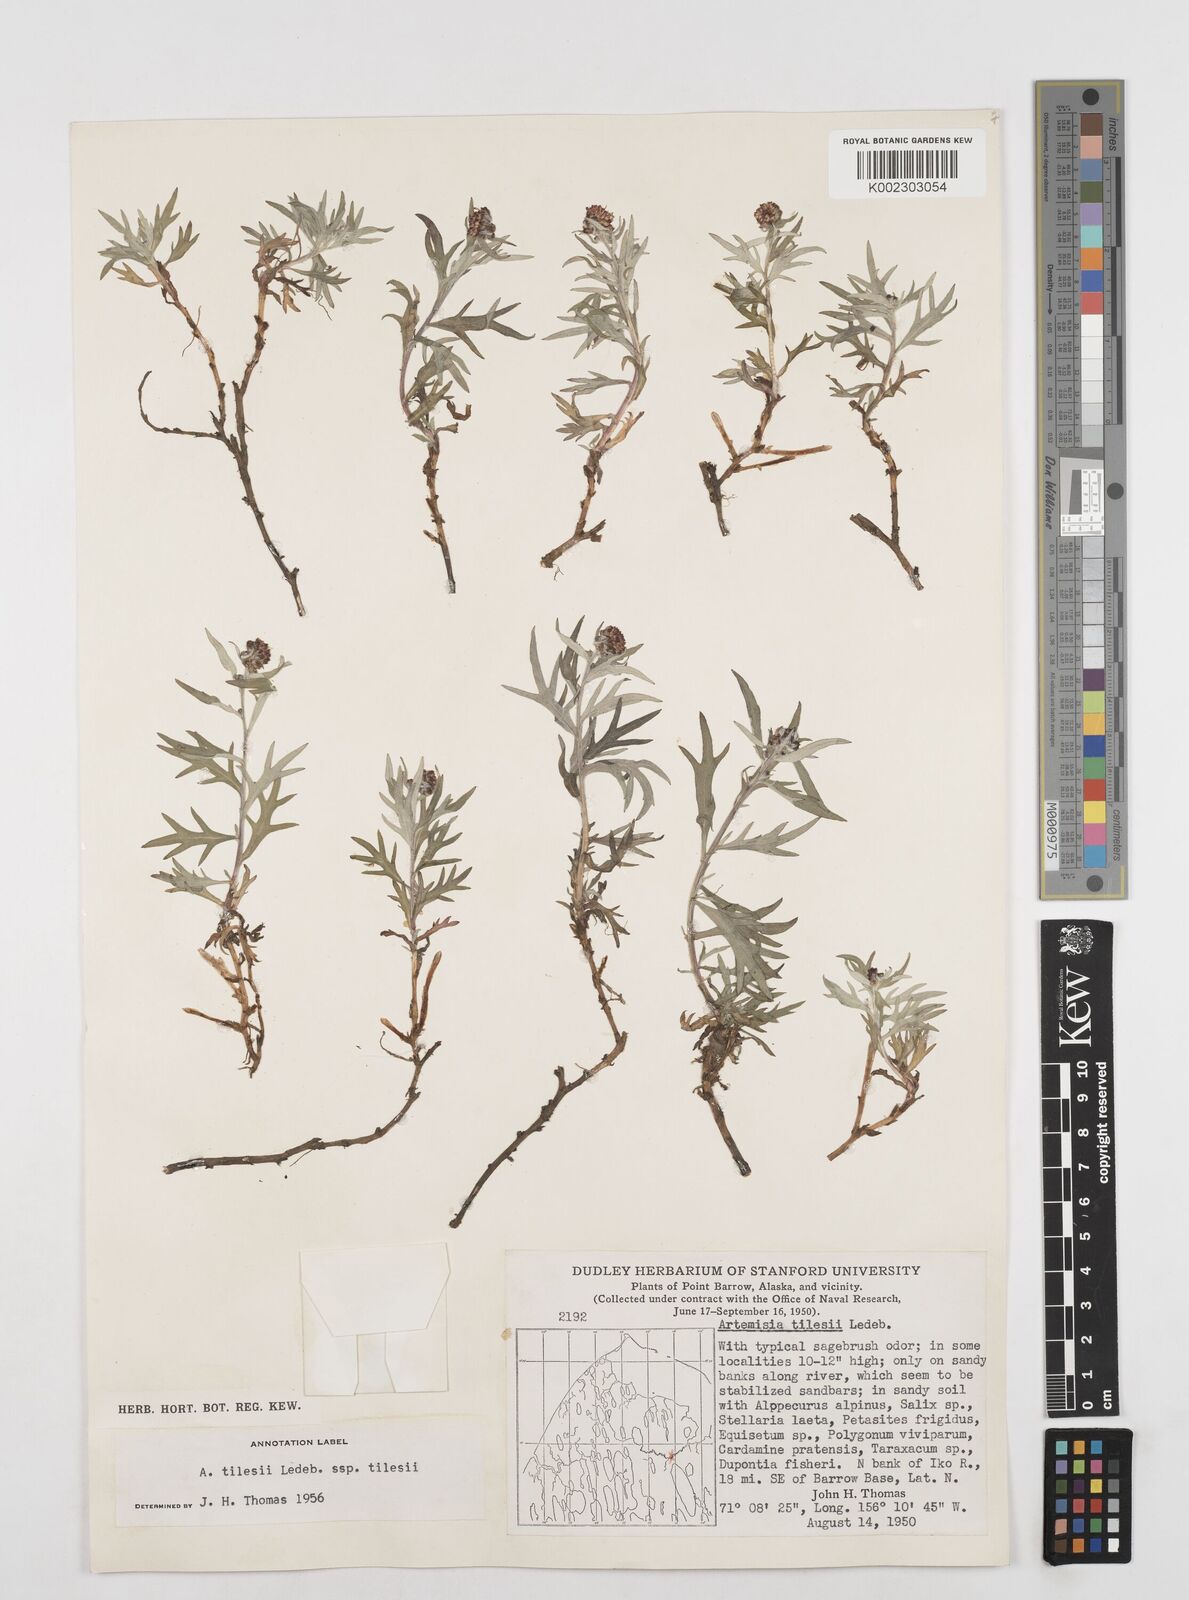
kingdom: Plantae
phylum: Tracheophyta
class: Magnoliopsida
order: Asterales
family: Asteraceae
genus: Artemisia
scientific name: Artemisia tilesii
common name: Aleutian mugwort
